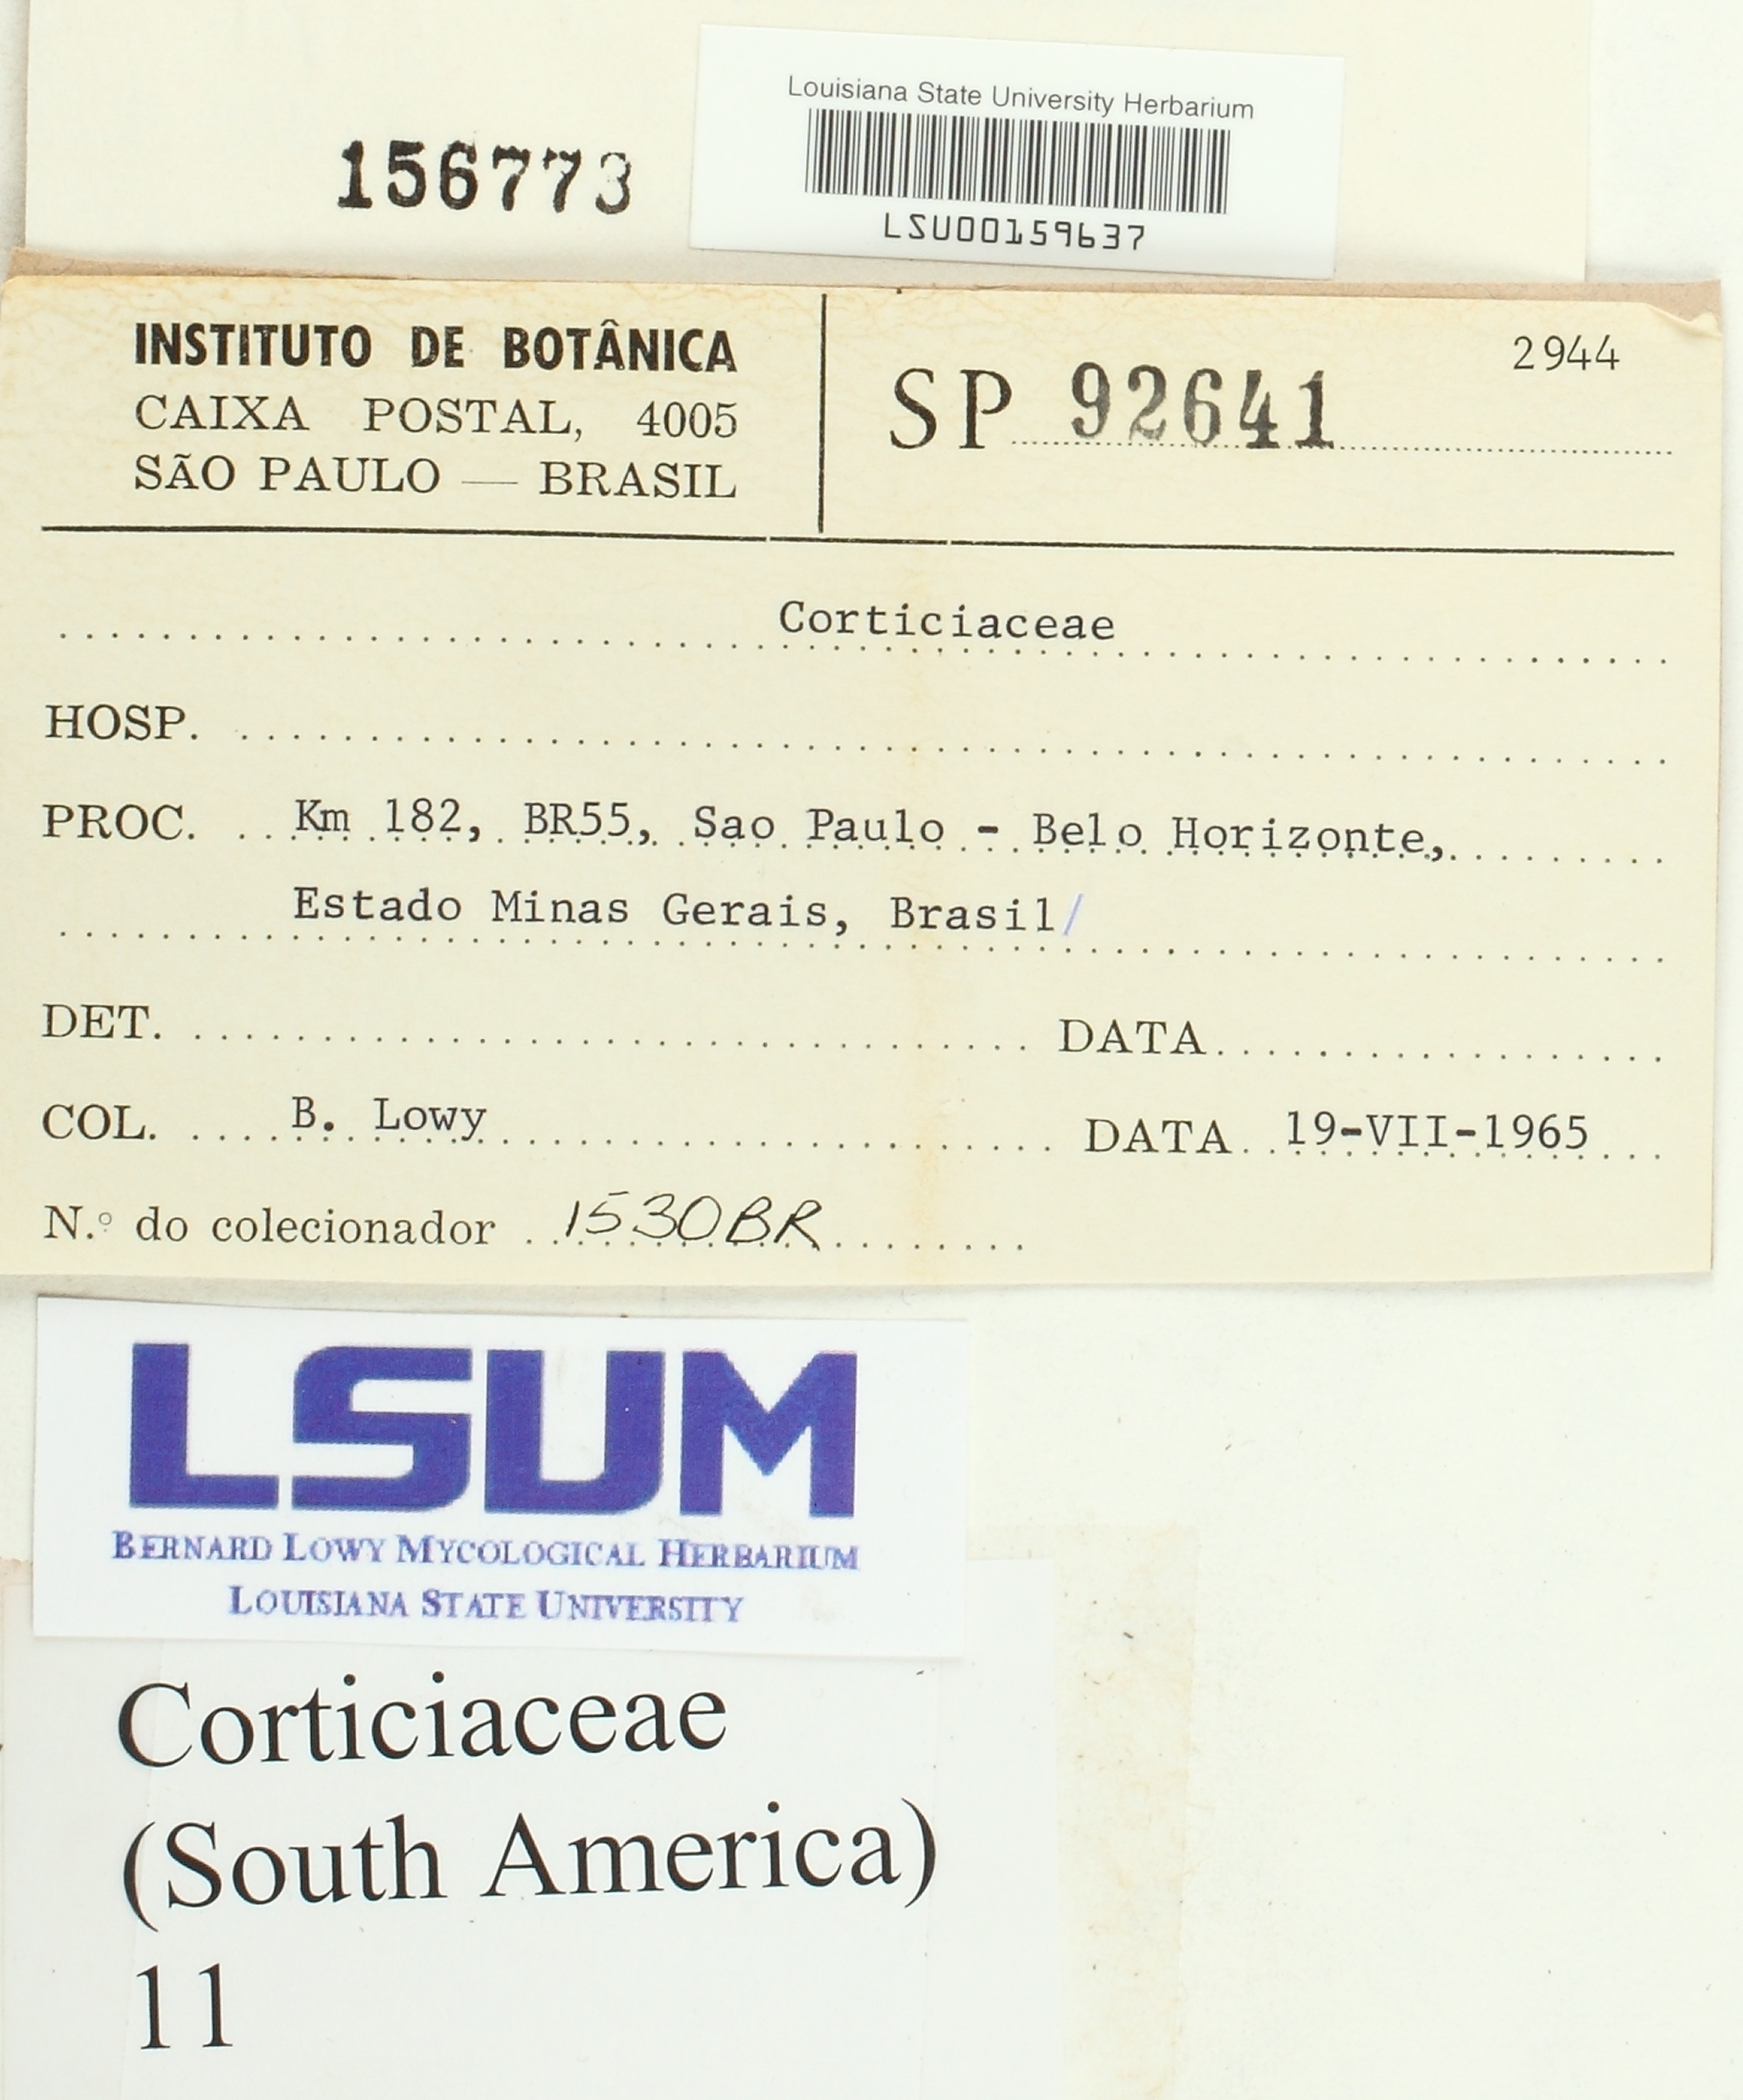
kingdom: Fungi
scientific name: Fungi
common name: Fungi
